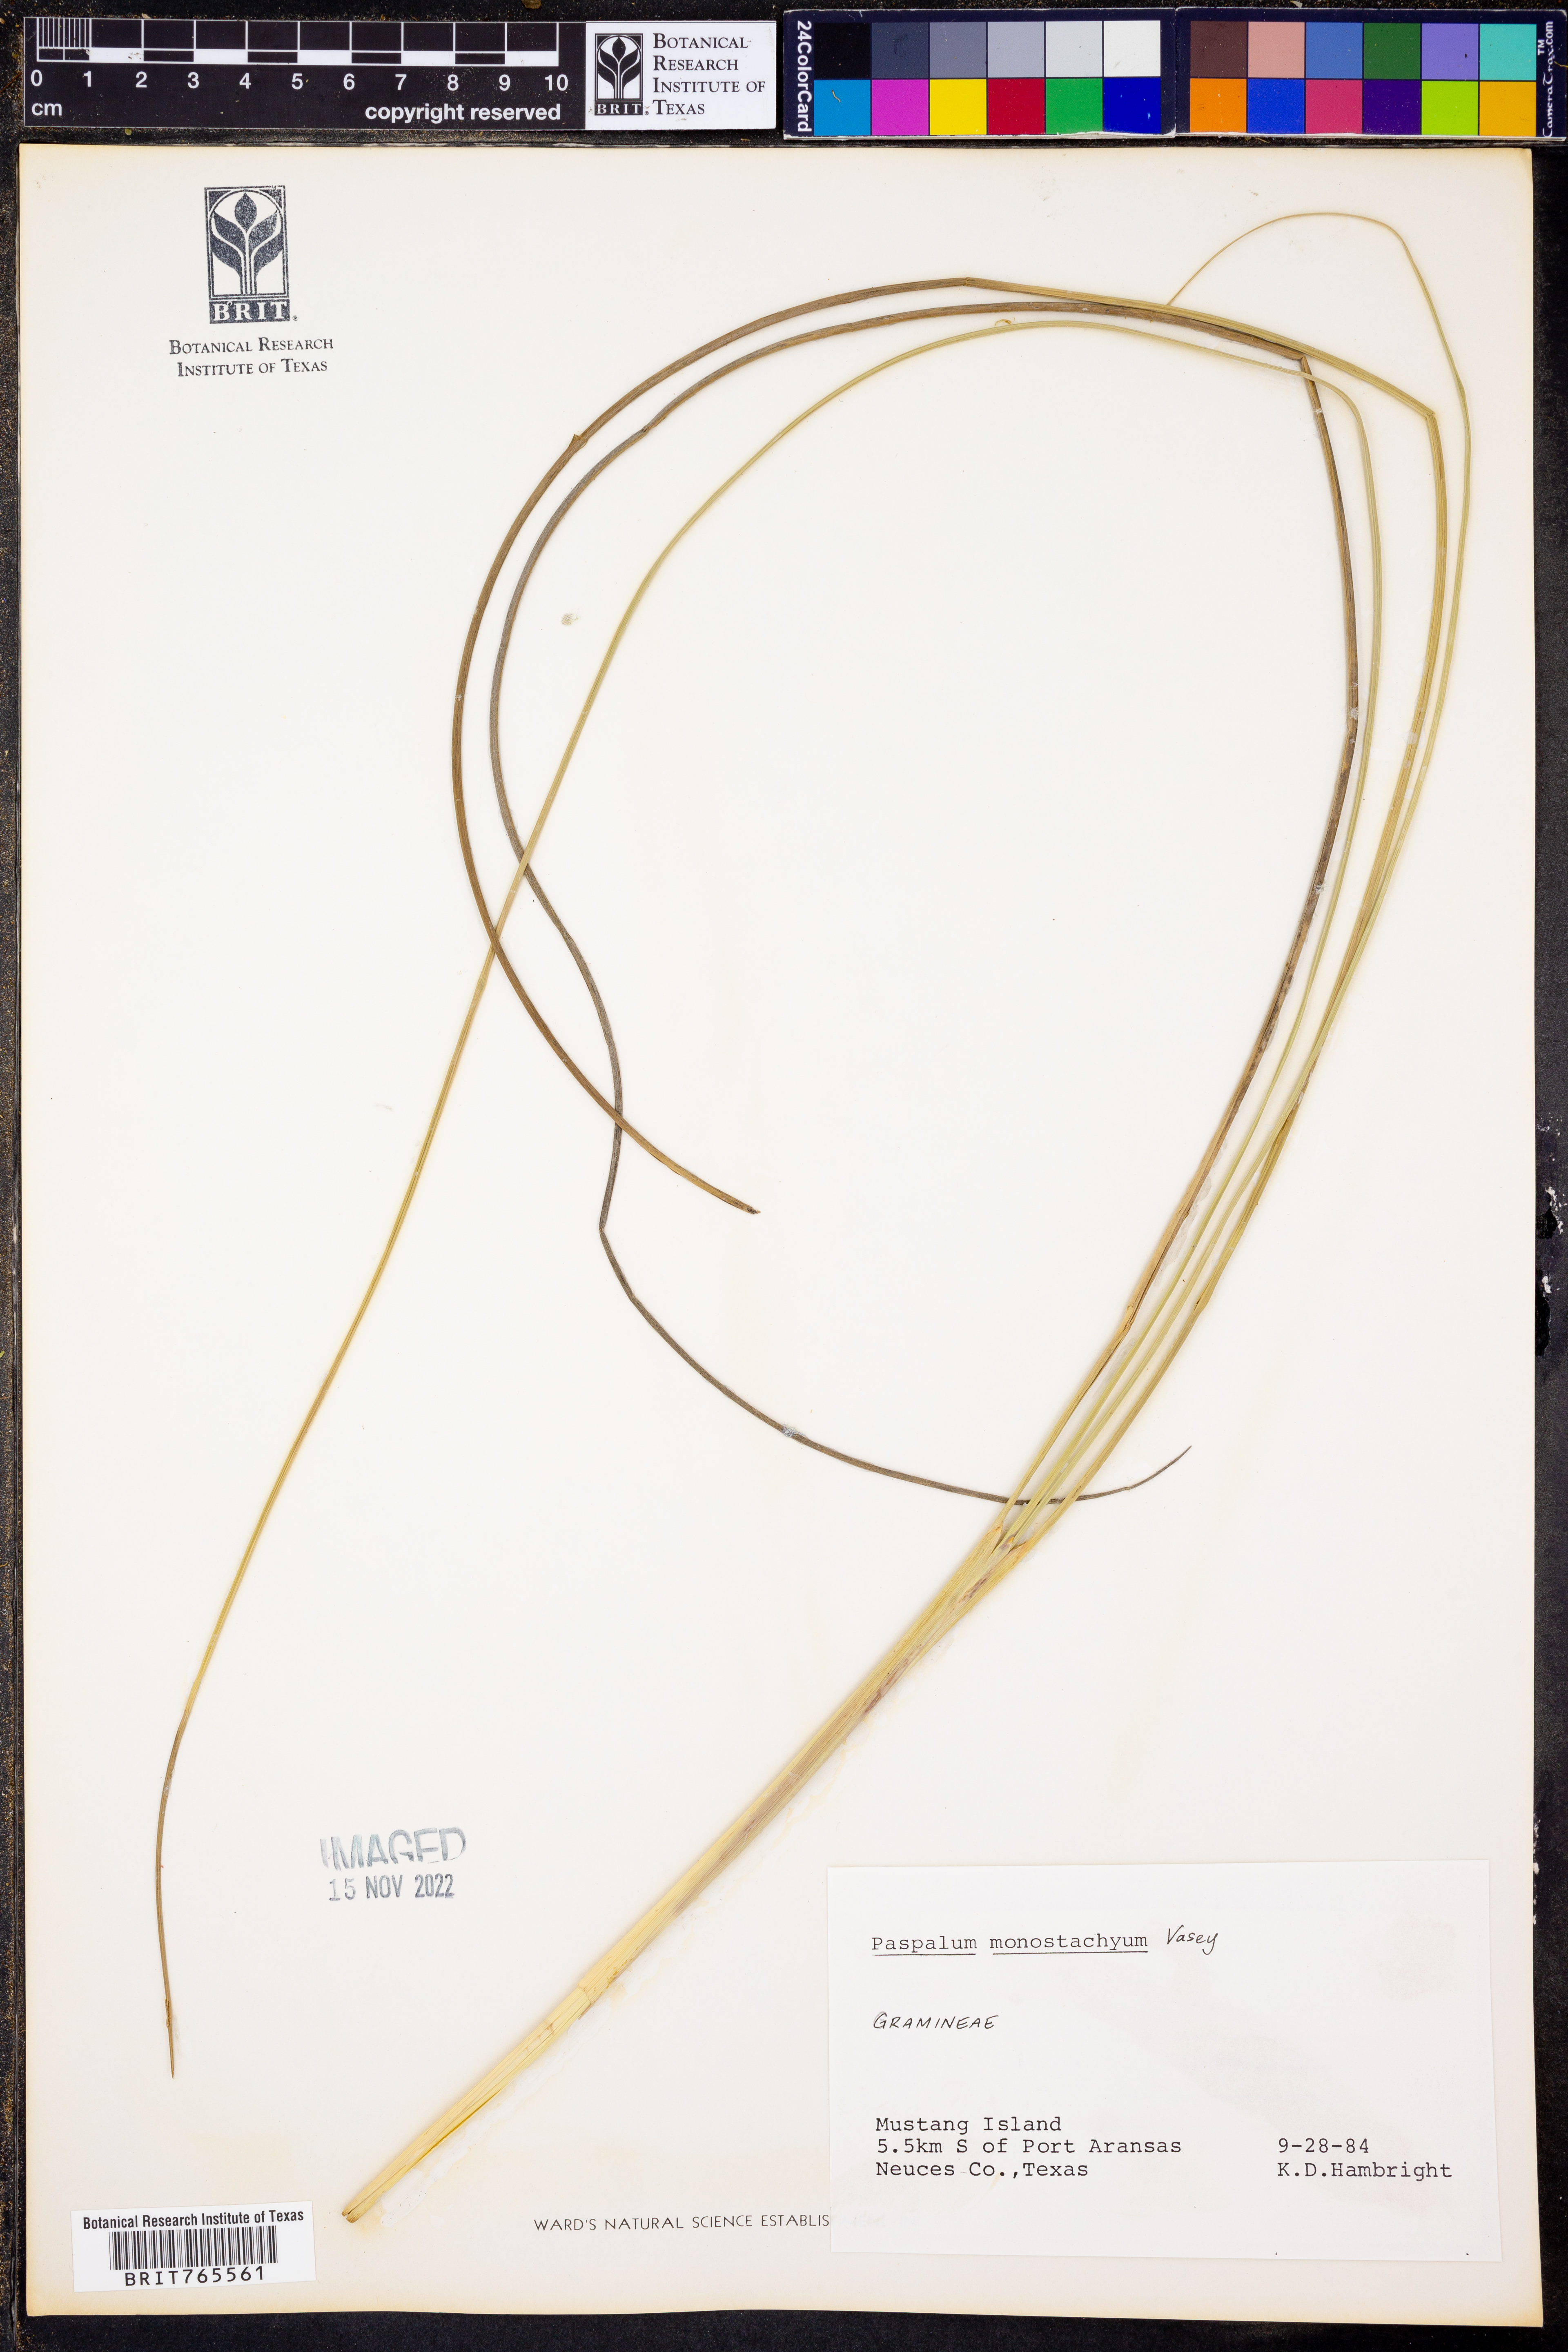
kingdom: Plantae
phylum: Tracheophyta
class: Liliopsida
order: Poales
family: Poaceae
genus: Paspalum
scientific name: Paspalum monostachyum
